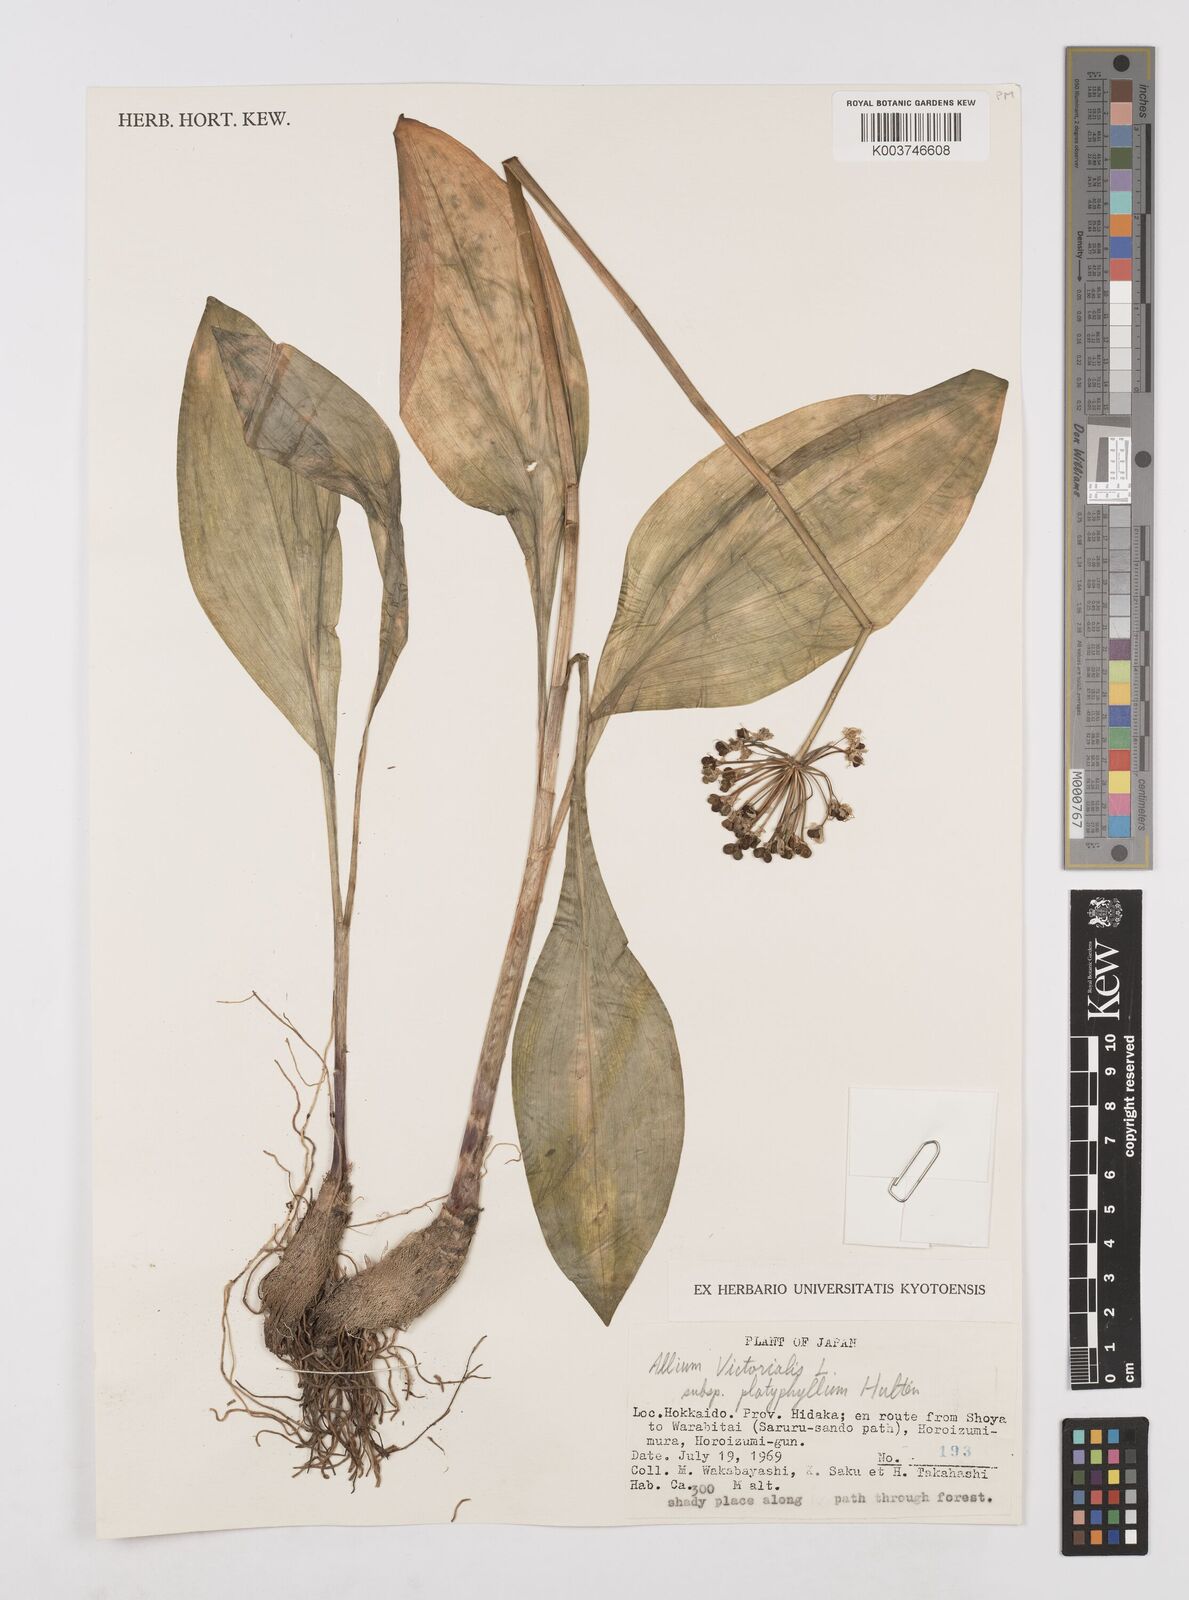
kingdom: Plantae
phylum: Tracheophyta
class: Liliopsida
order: Asparagales
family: Amaryllidaceae
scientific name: Amaryllidaceae
